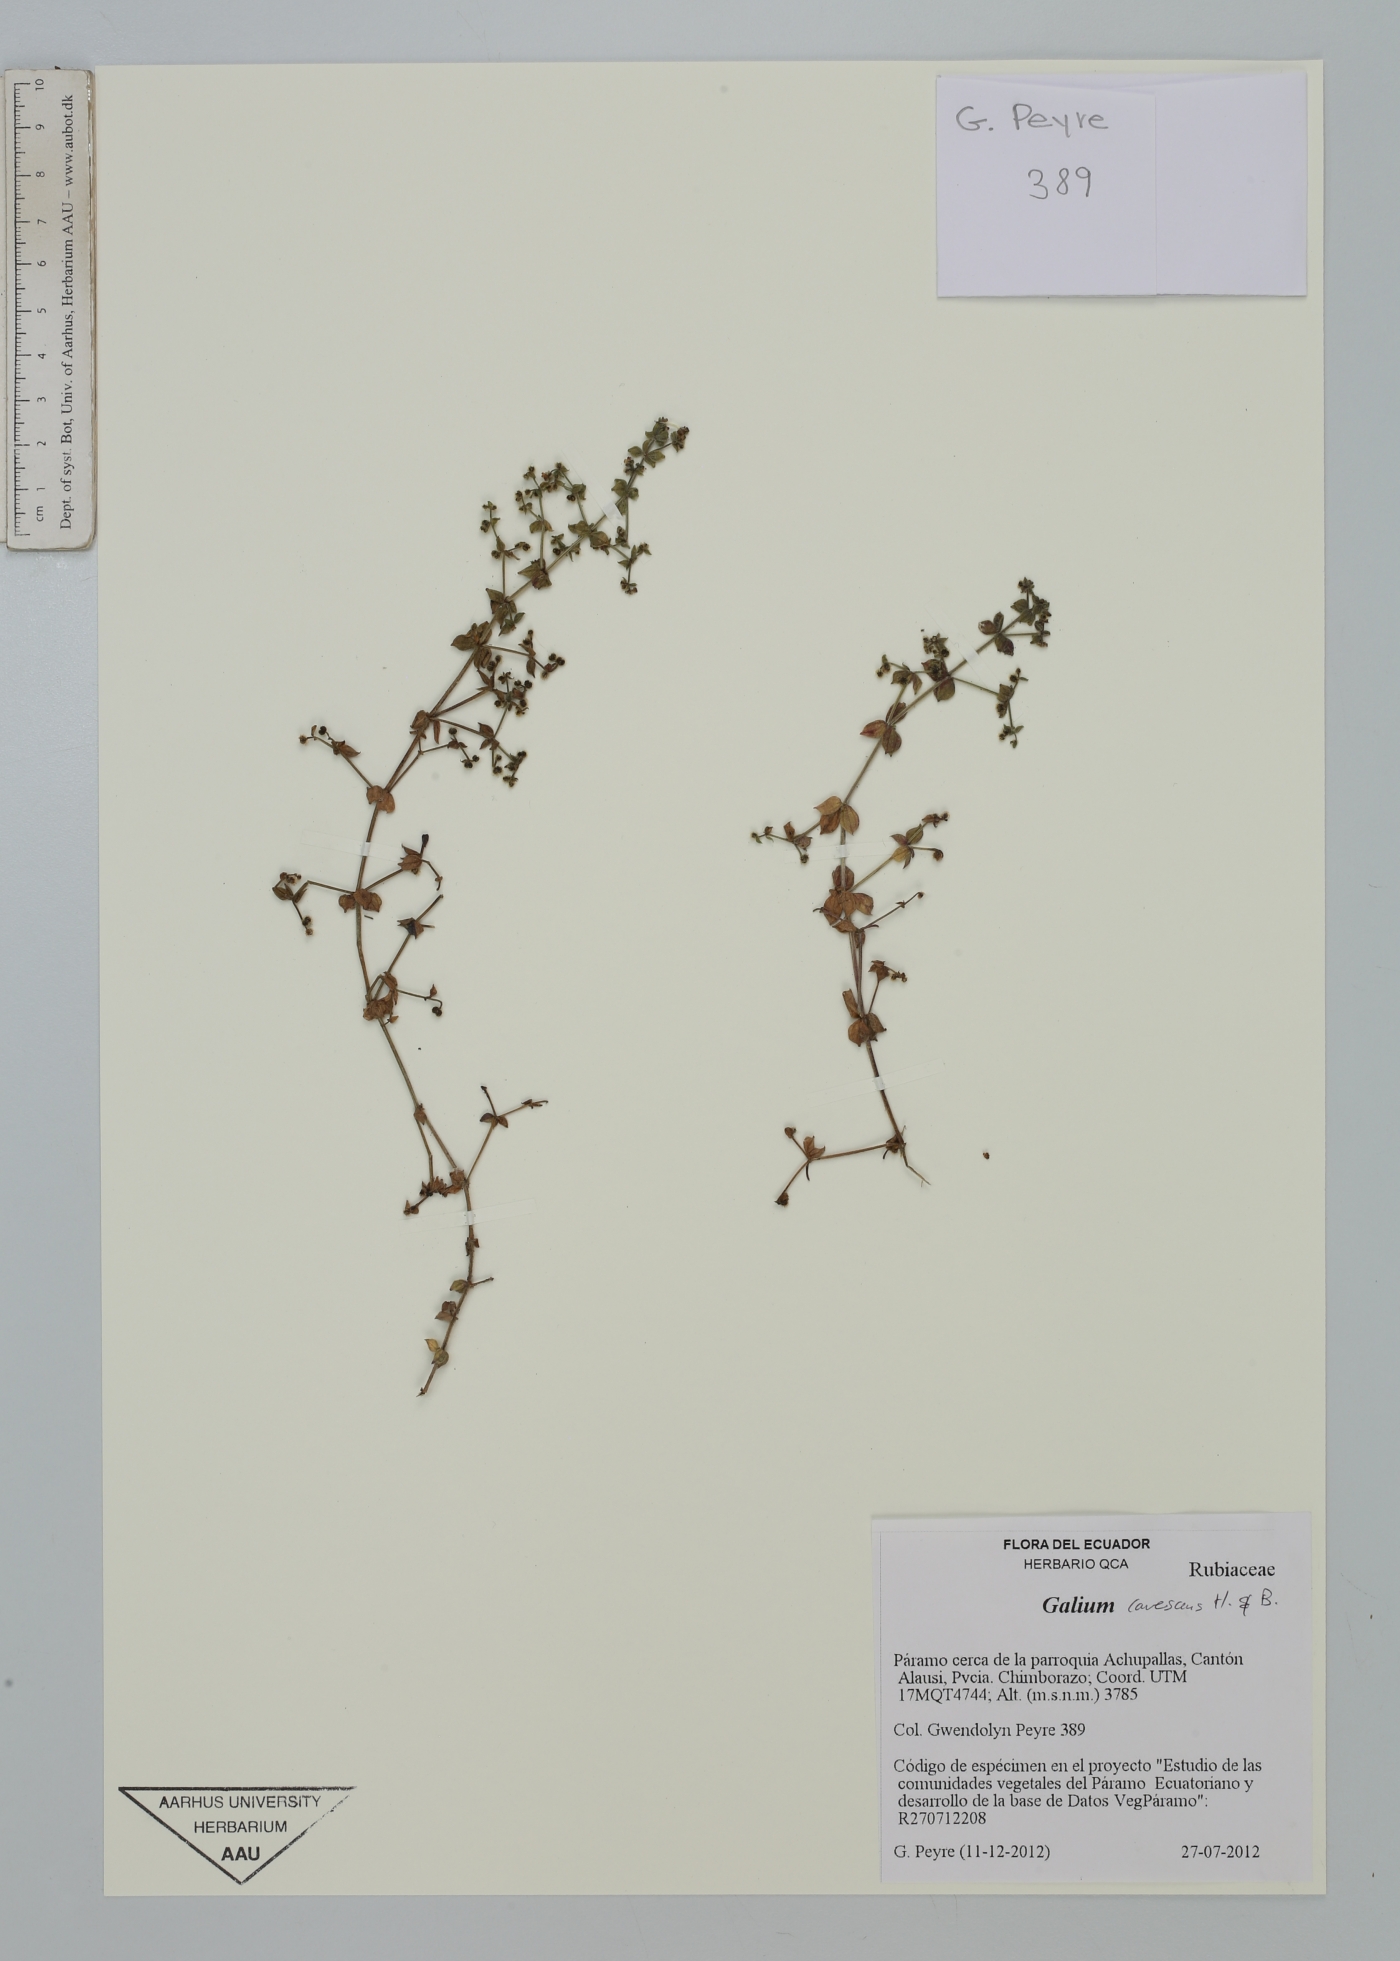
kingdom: Plantae
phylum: Tracheophyta
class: Magnoliopsida
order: Gentianales
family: Rubiaceae
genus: Galium
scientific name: Galium canescens
